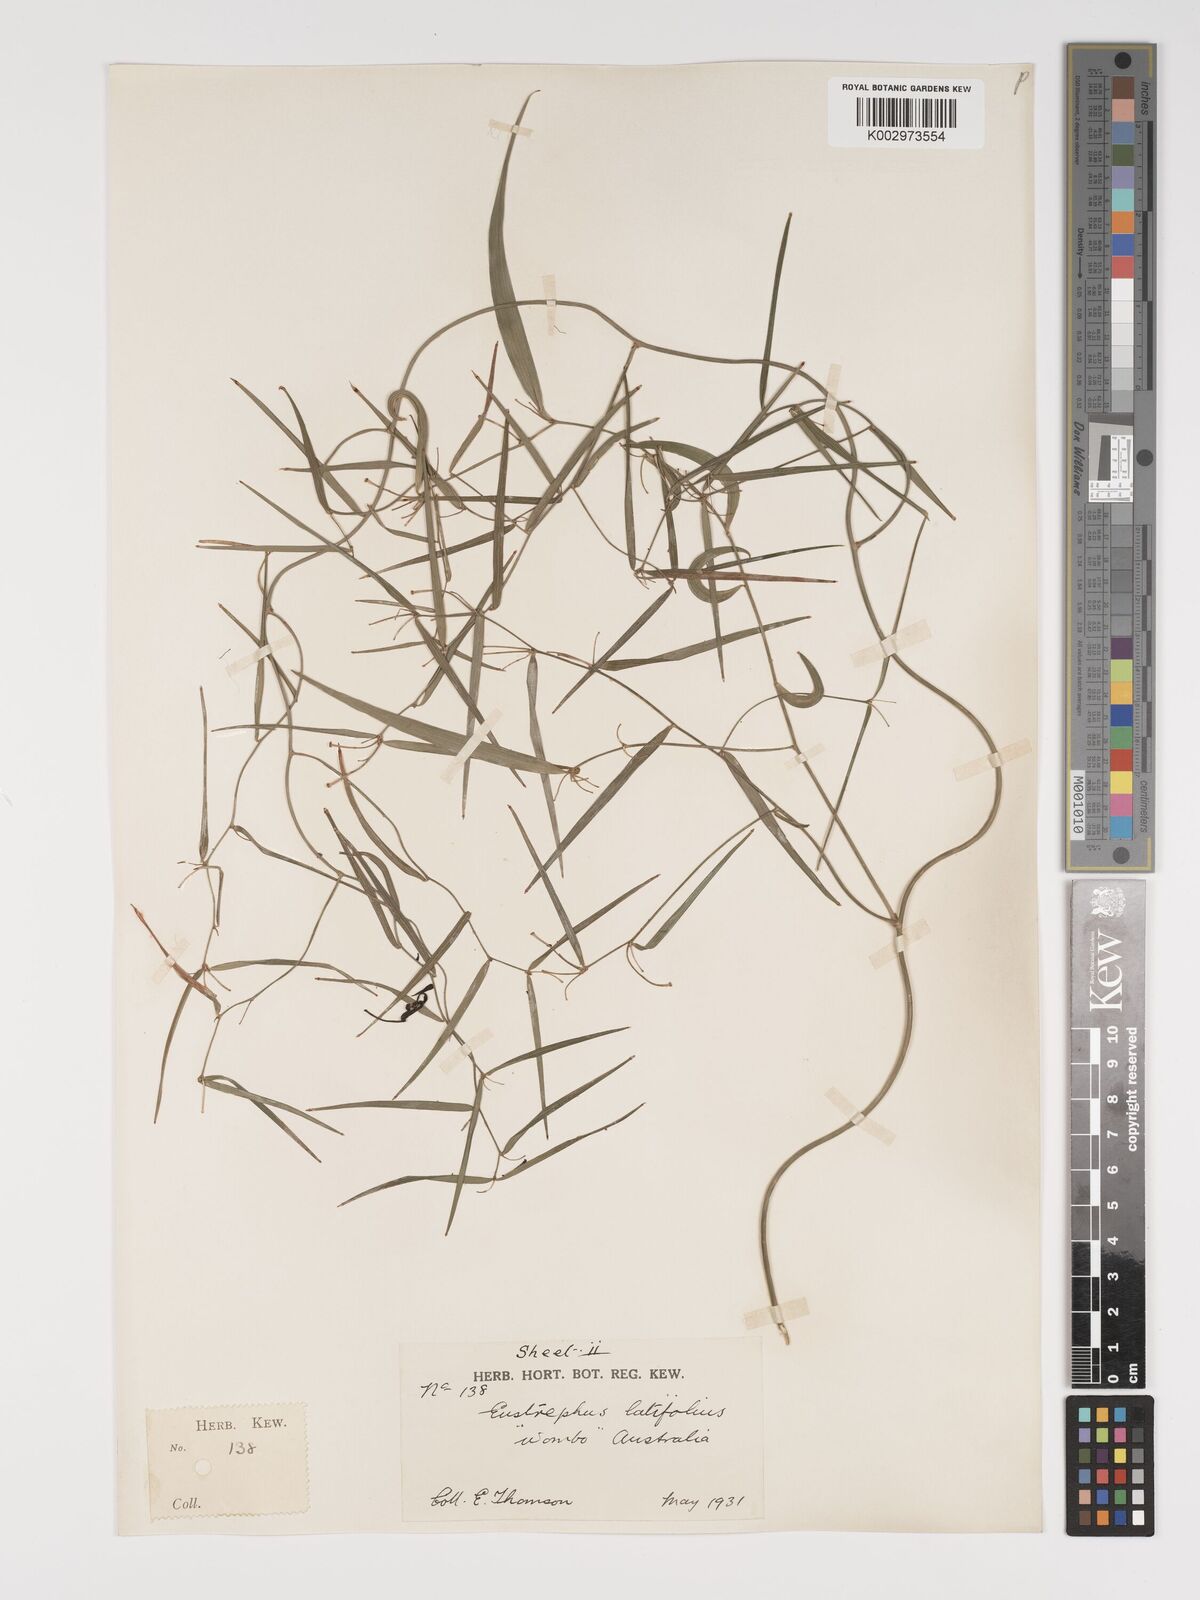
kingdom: Plantae
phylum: Tracheophyta
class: Liliopsida
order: Asparagales
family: Asparagaceae
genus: Eustrephus
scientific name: Eustrephus latifolius
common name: Orangevine
